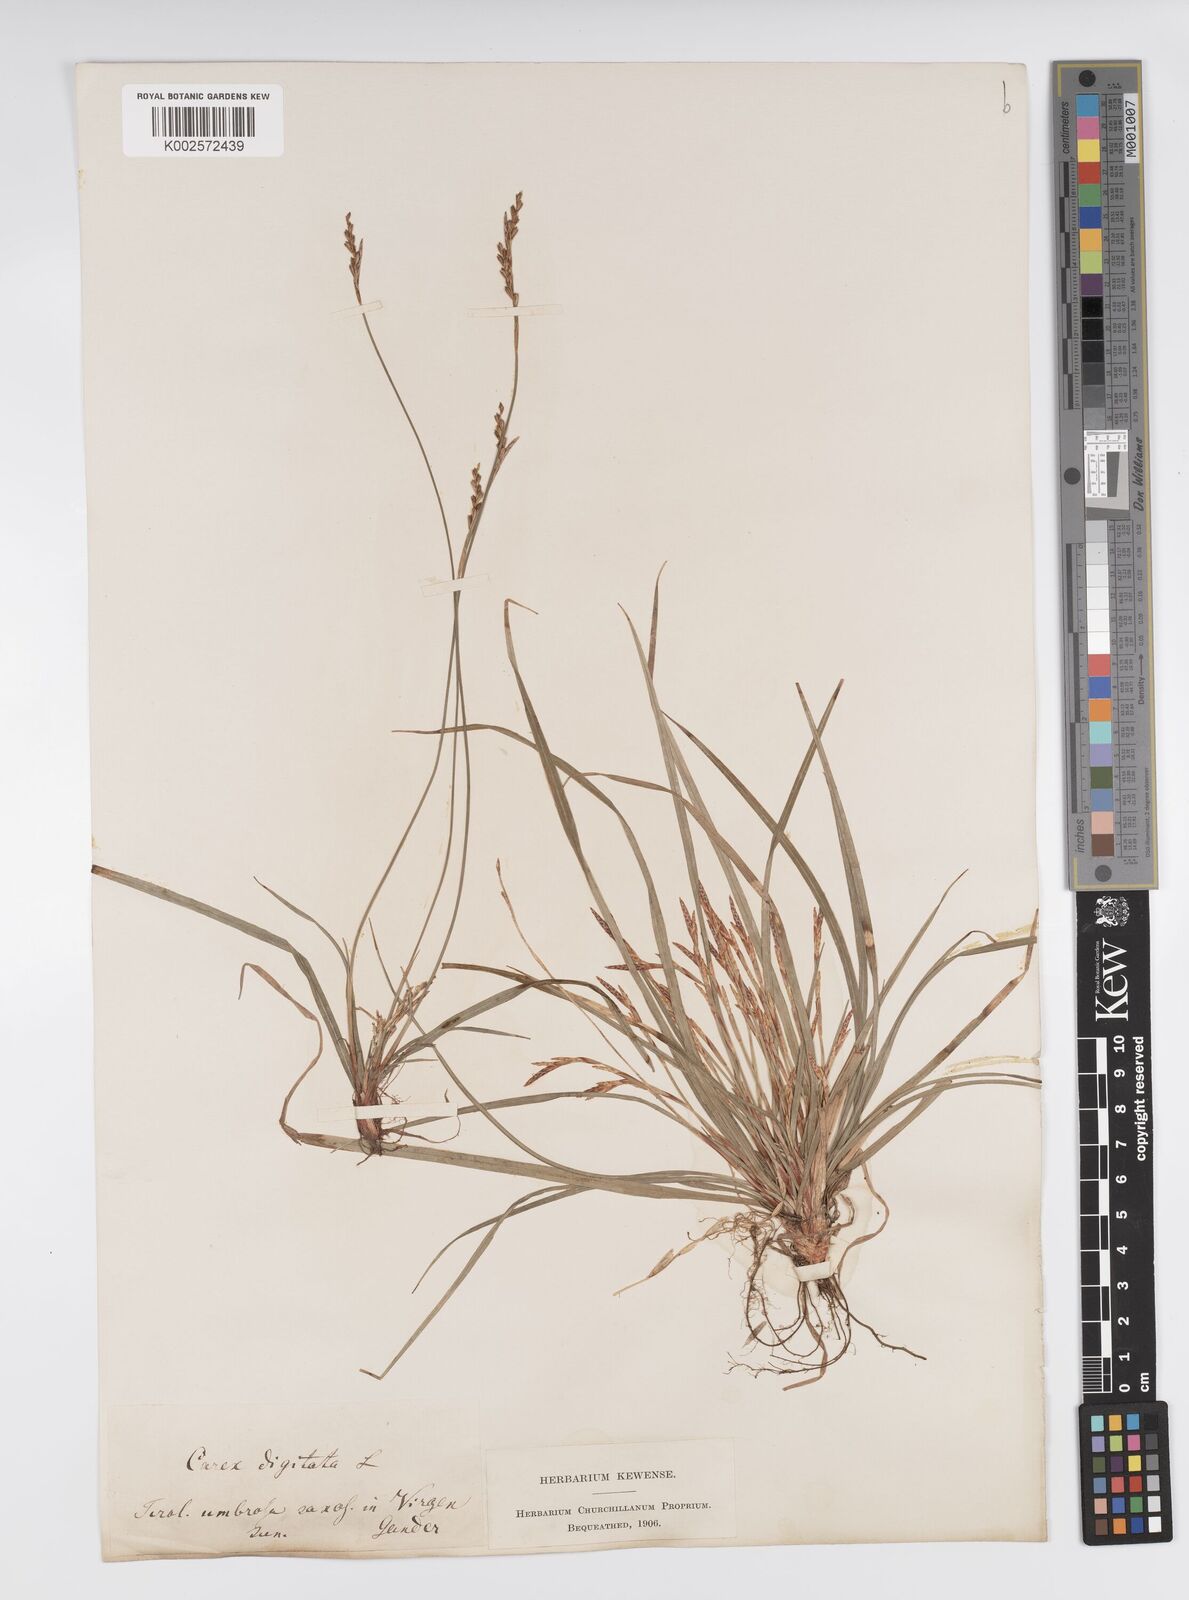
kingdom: Plantae
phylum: Tracheophyta
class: Liliopsida
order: Poales
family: Cyperaceae
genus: Carex
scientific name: Carex digitata
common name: Fingered sedge
